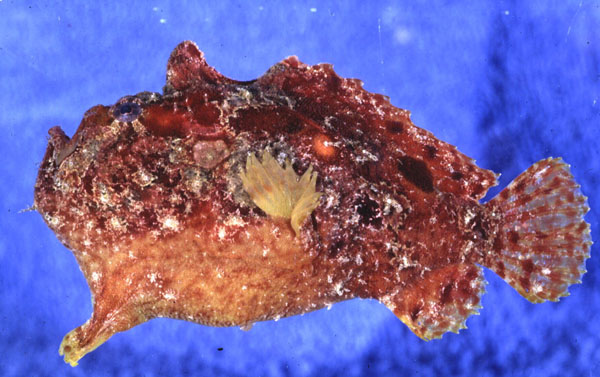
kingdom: Animalia
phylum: Chordata
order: Lophiiformes
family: Antennariidae
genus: Antennatus
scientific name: Antennatus linearis
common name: Lined frogfish
